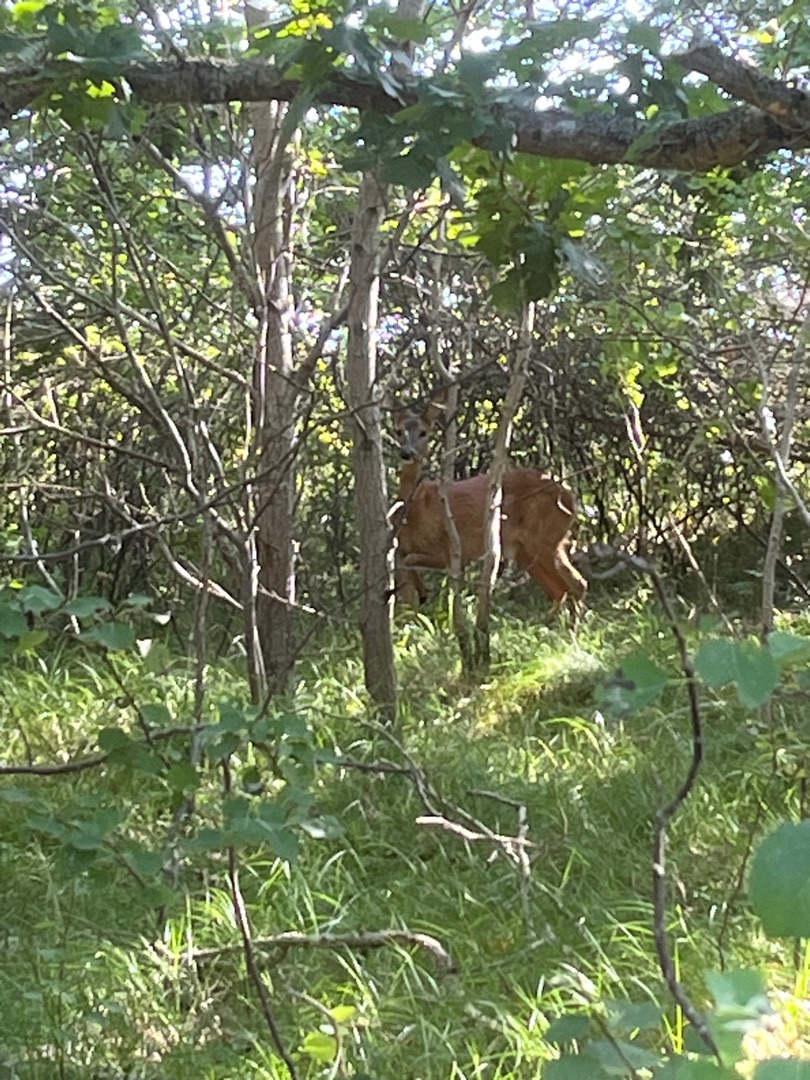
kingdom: Animalia
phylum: Chordata
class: Mammalia
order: Artiodactyla
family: Cervidae
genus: Capreolus
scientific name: Capreolus capreolus
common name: Rådyr
